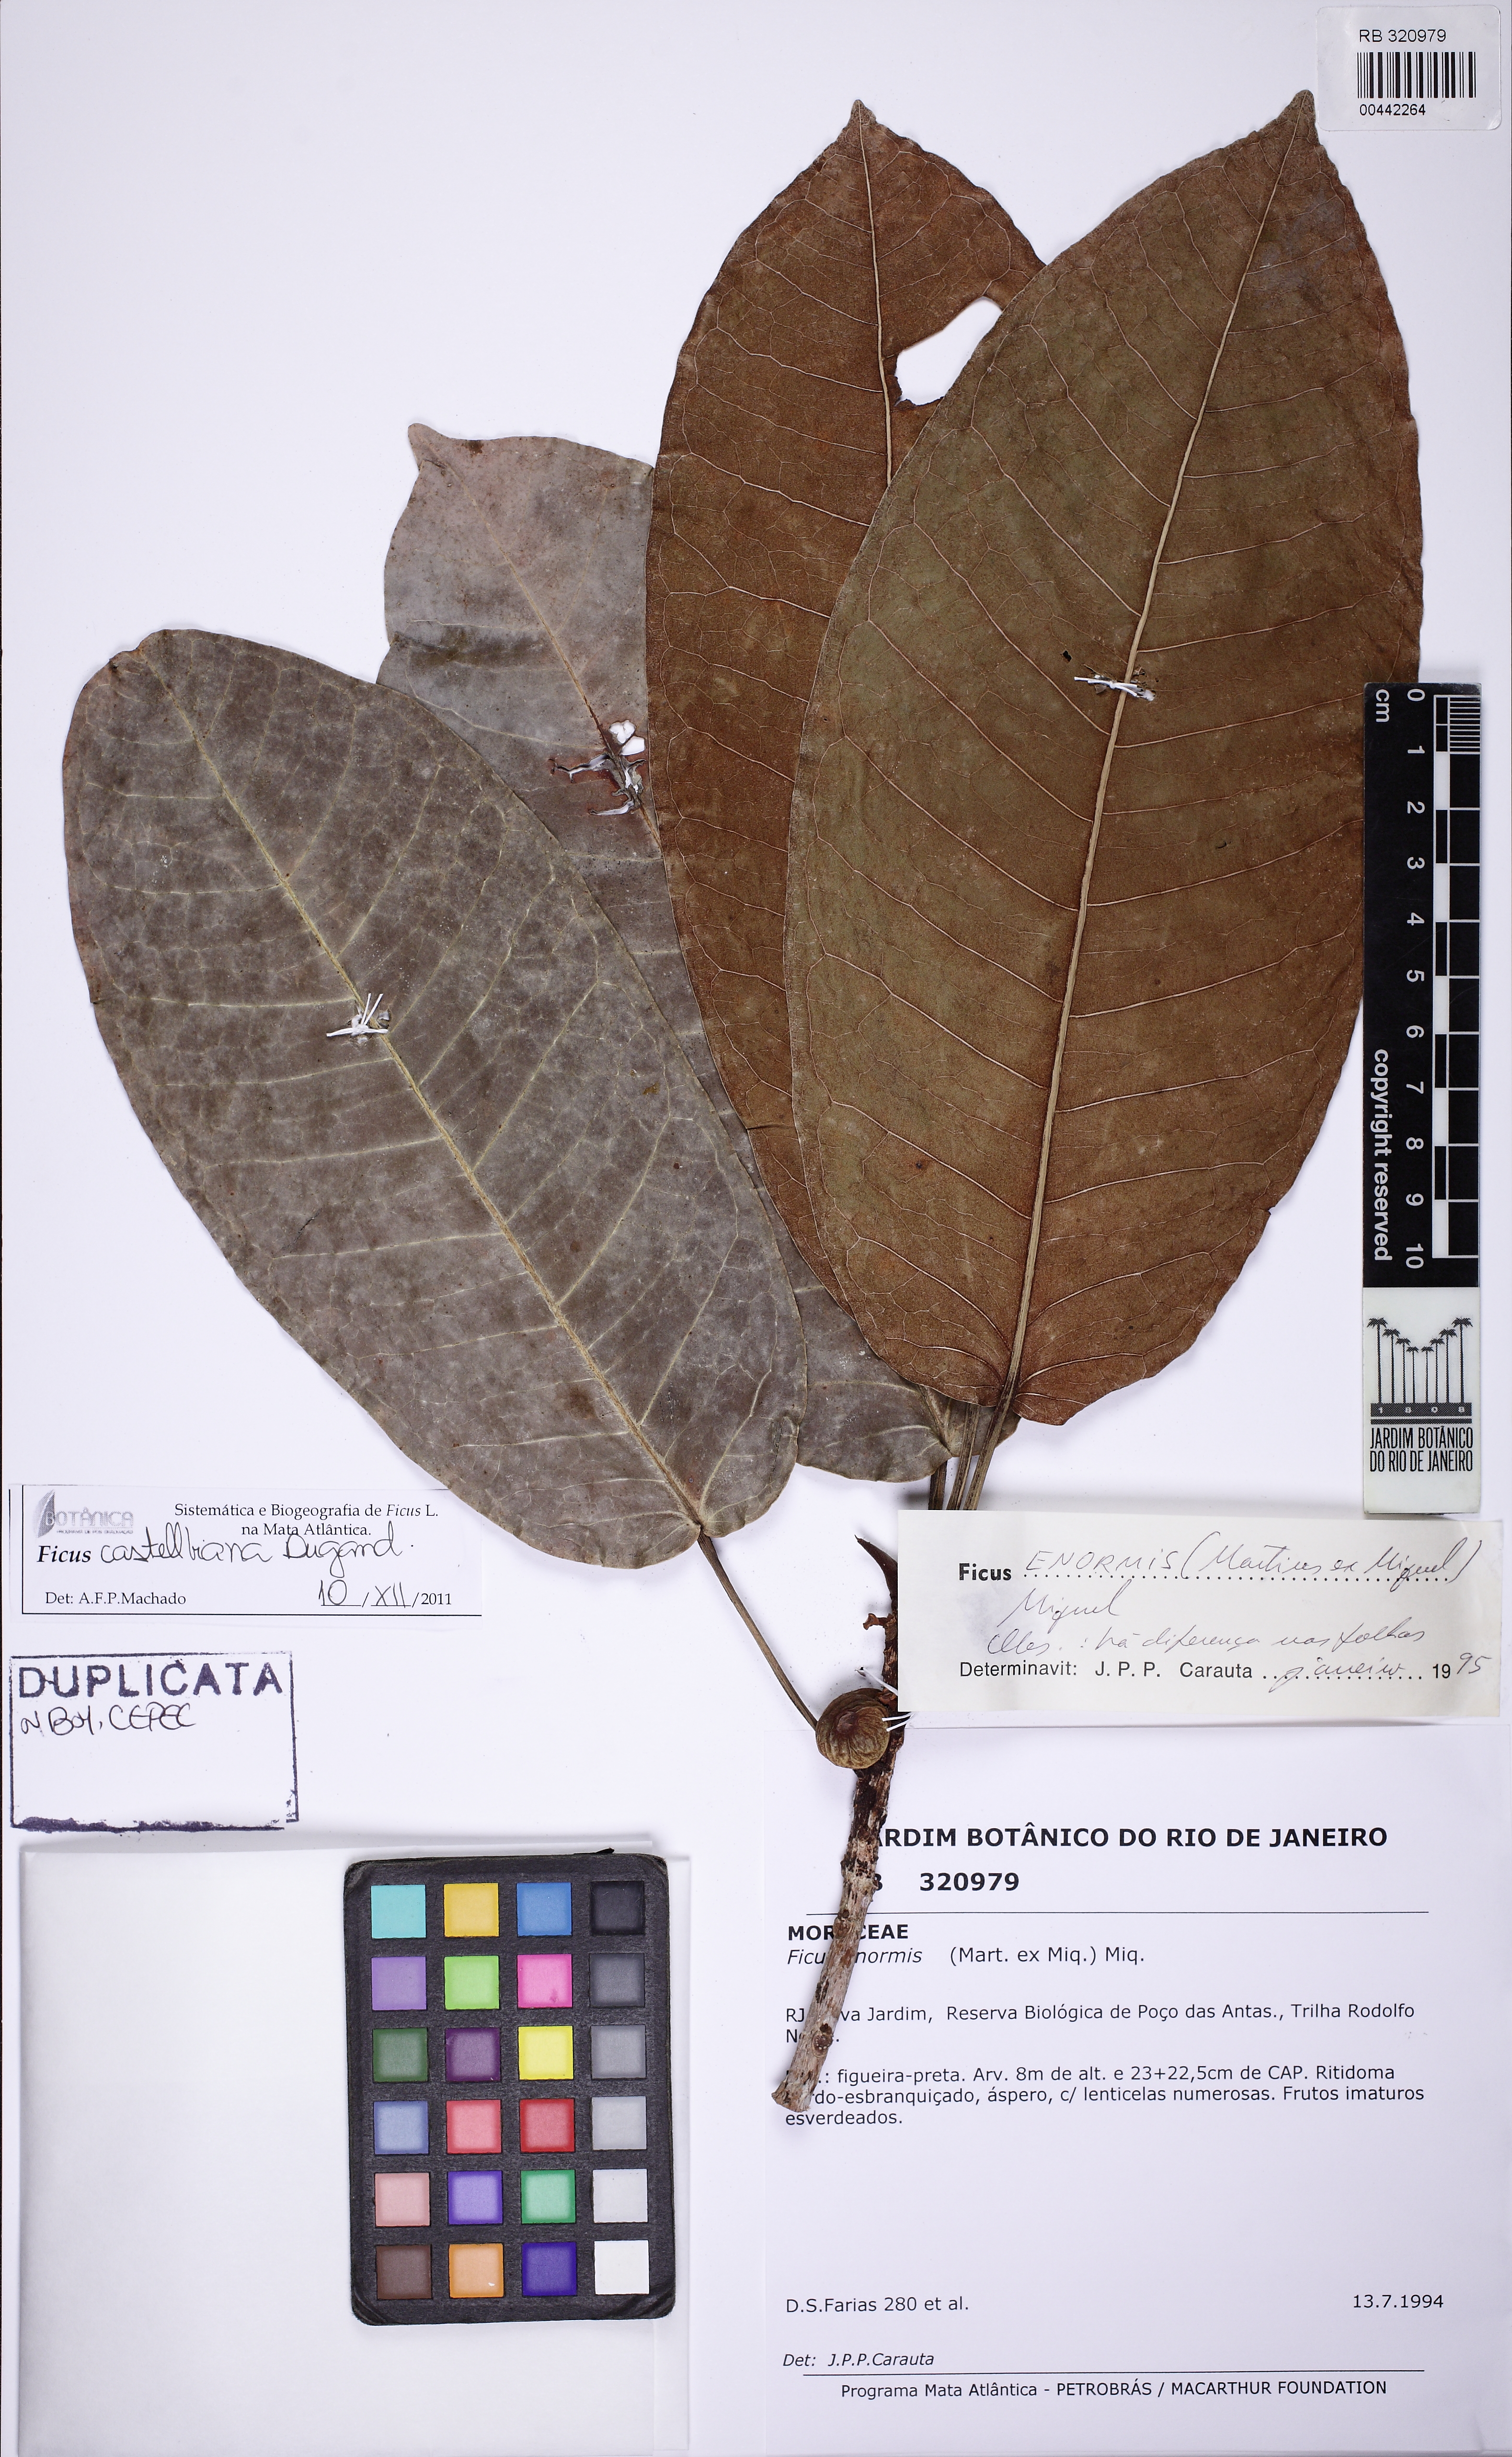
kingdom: Plantae
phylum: Tracheophyta
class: Magnoliopsida
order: Rosales
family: Moraceae
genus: Ficus
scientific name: Ficus castellviana
